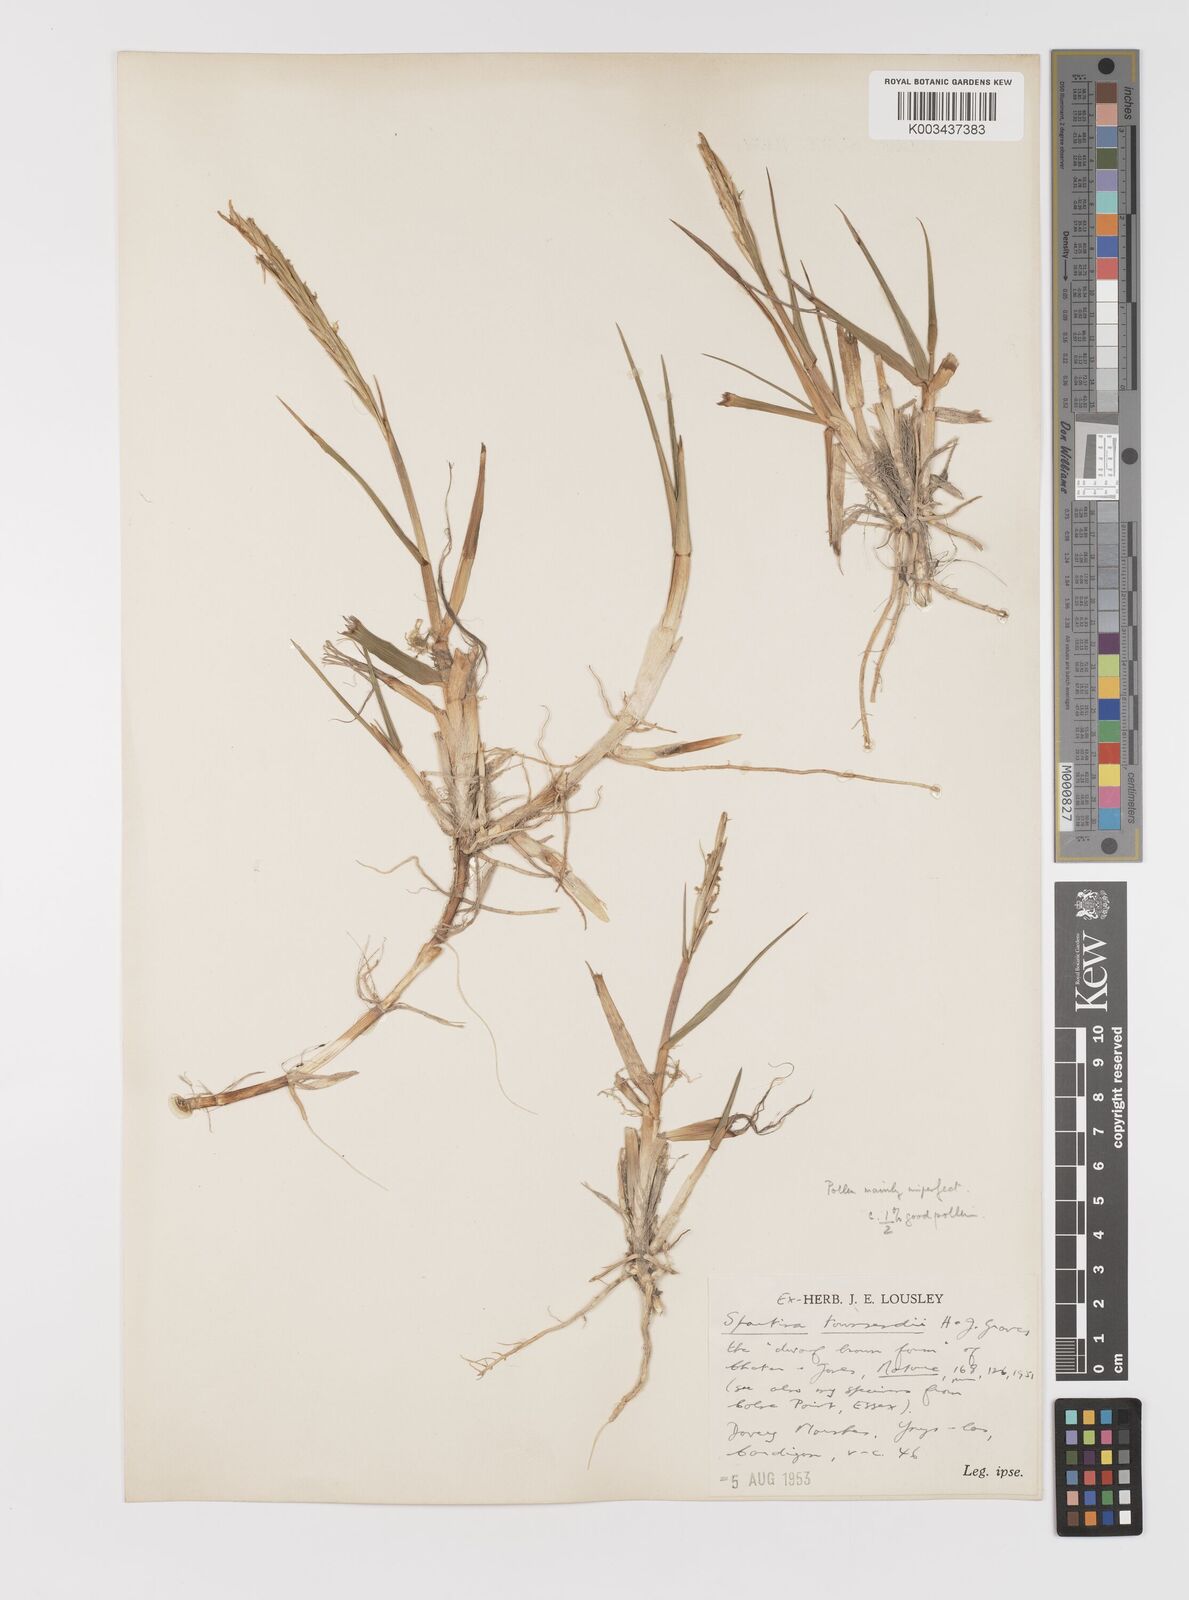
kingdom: Plantae
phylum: Tracheophyta
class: Liliopsida
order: Poales
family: Poaceae
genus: Sporobolus
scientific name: Sporobolus townsendii
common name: Townsend's cordgrass
